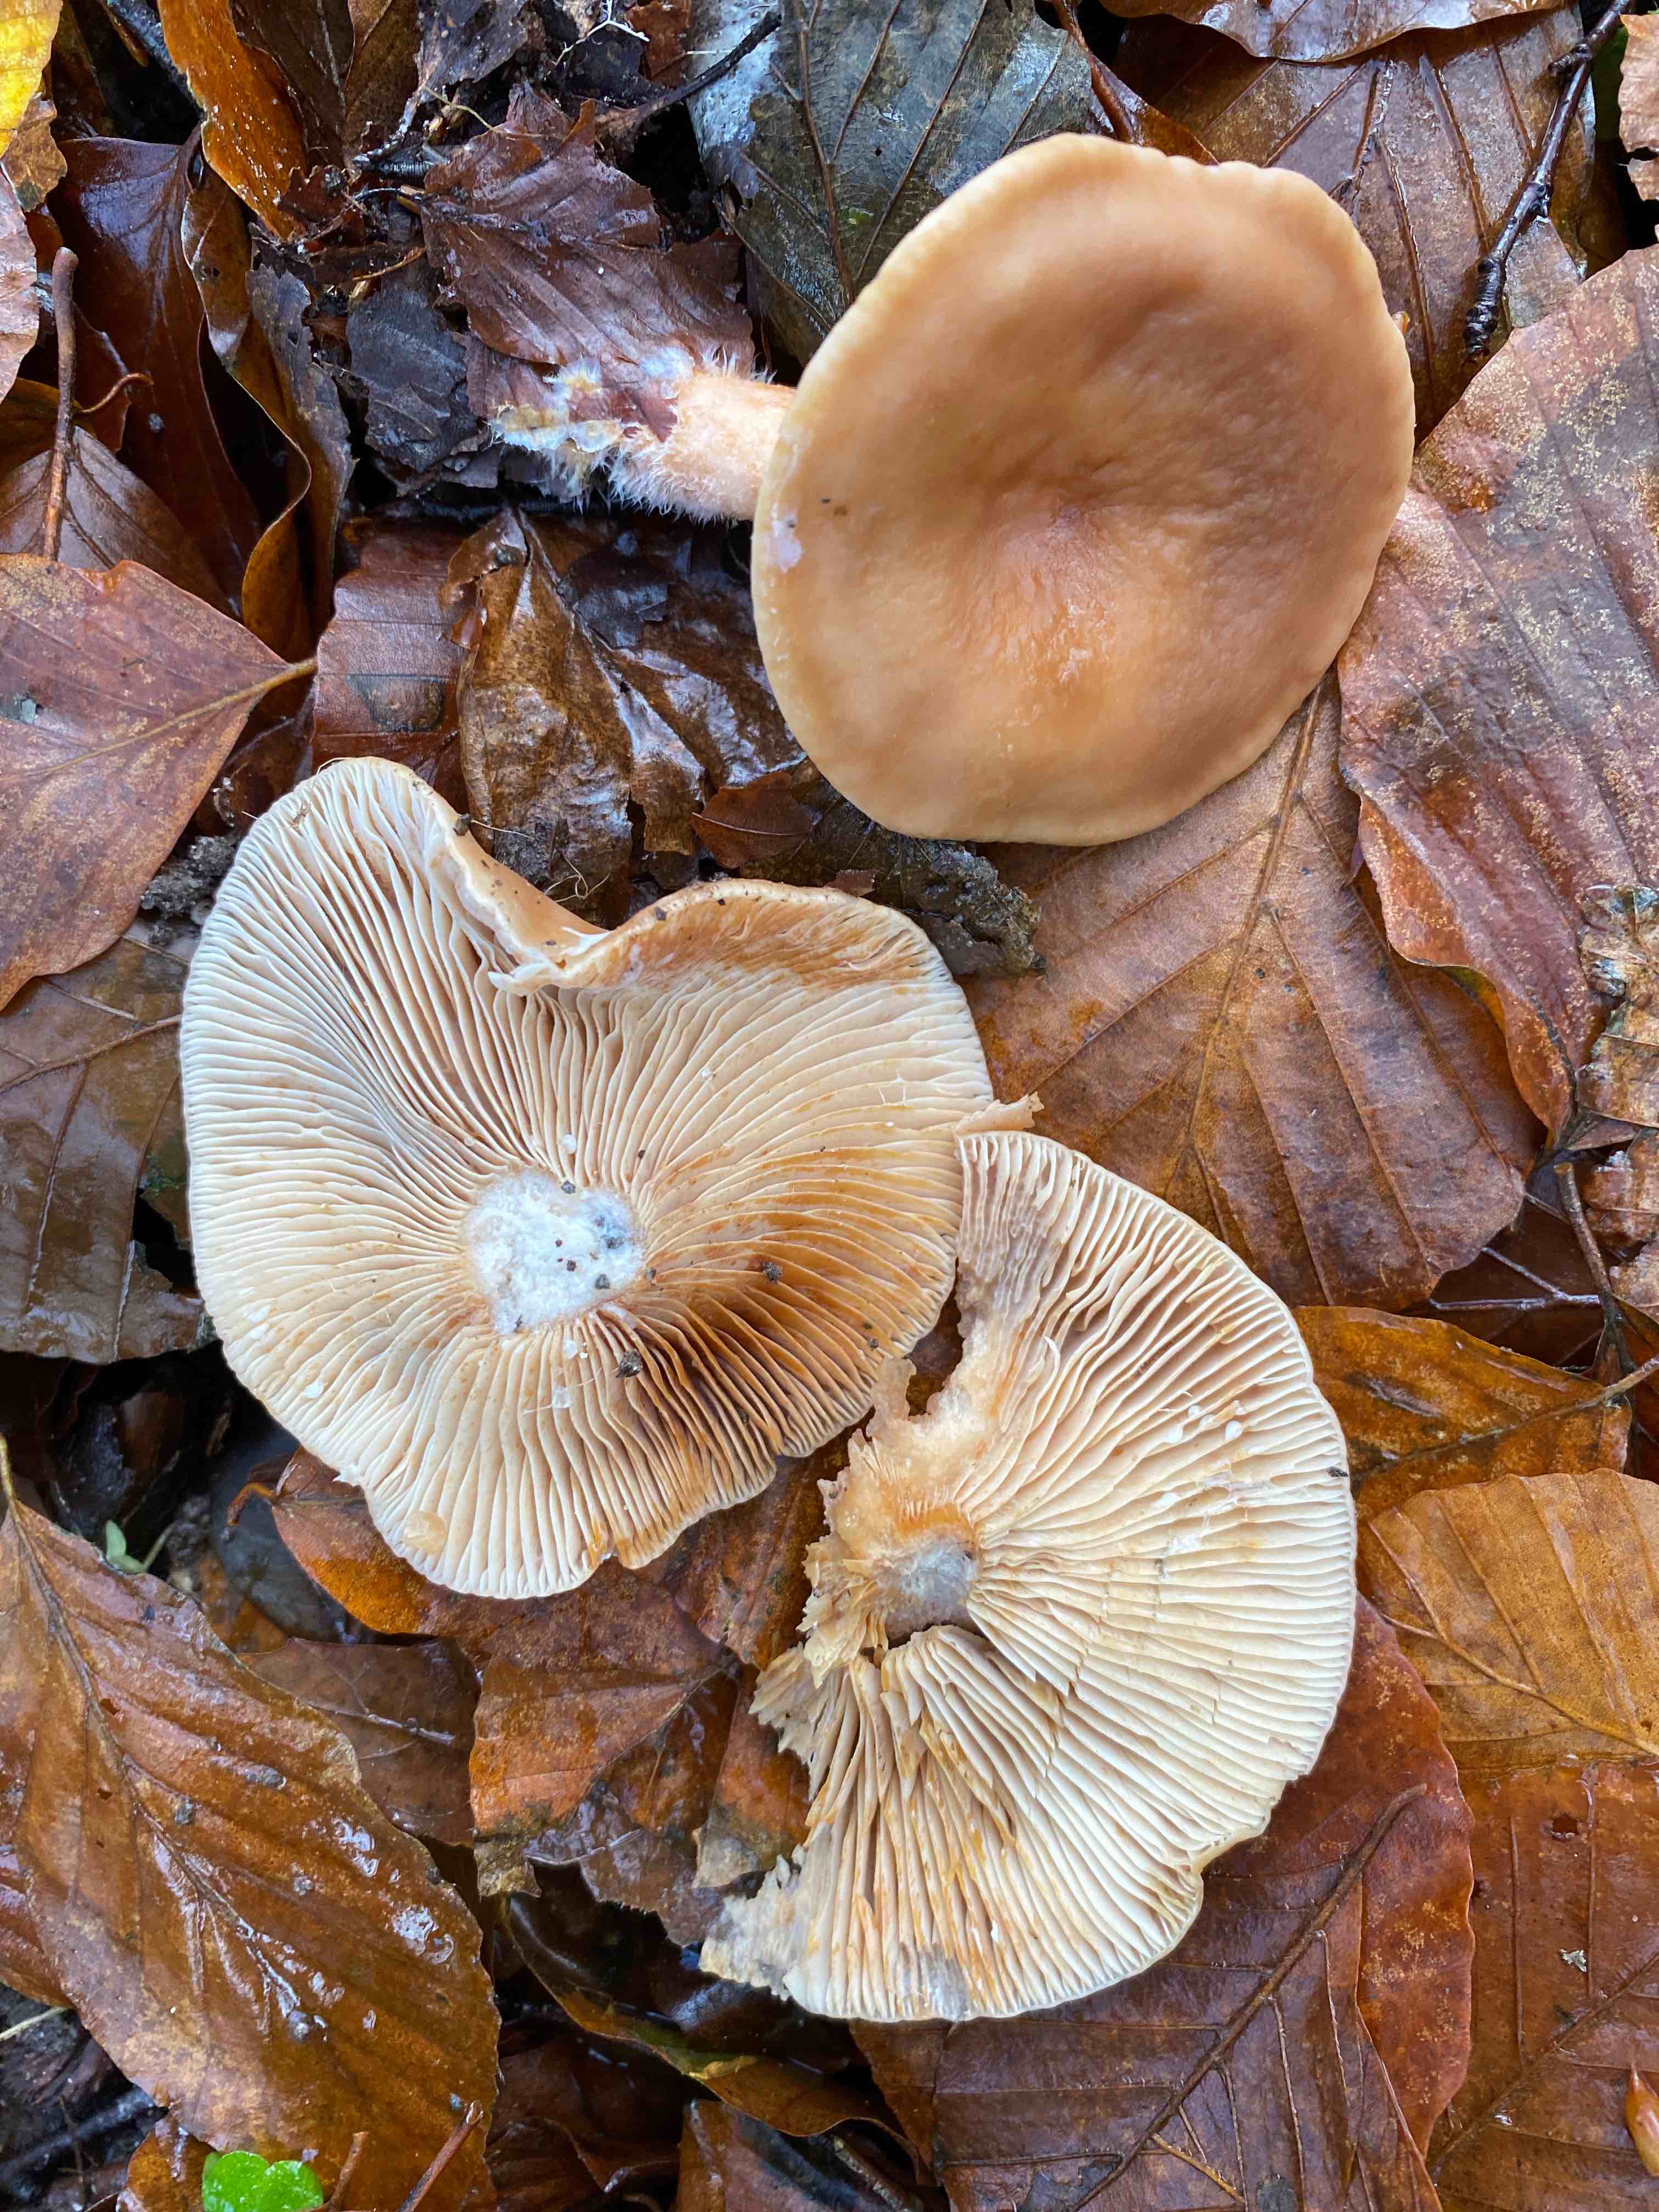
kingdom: Fungi
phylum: Basidiomycota
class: Agaricomycetes
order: Russulales
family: Russulaceae
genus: Lactarius
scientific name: Lactarius subdulcis
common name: sødlig mælkehat
